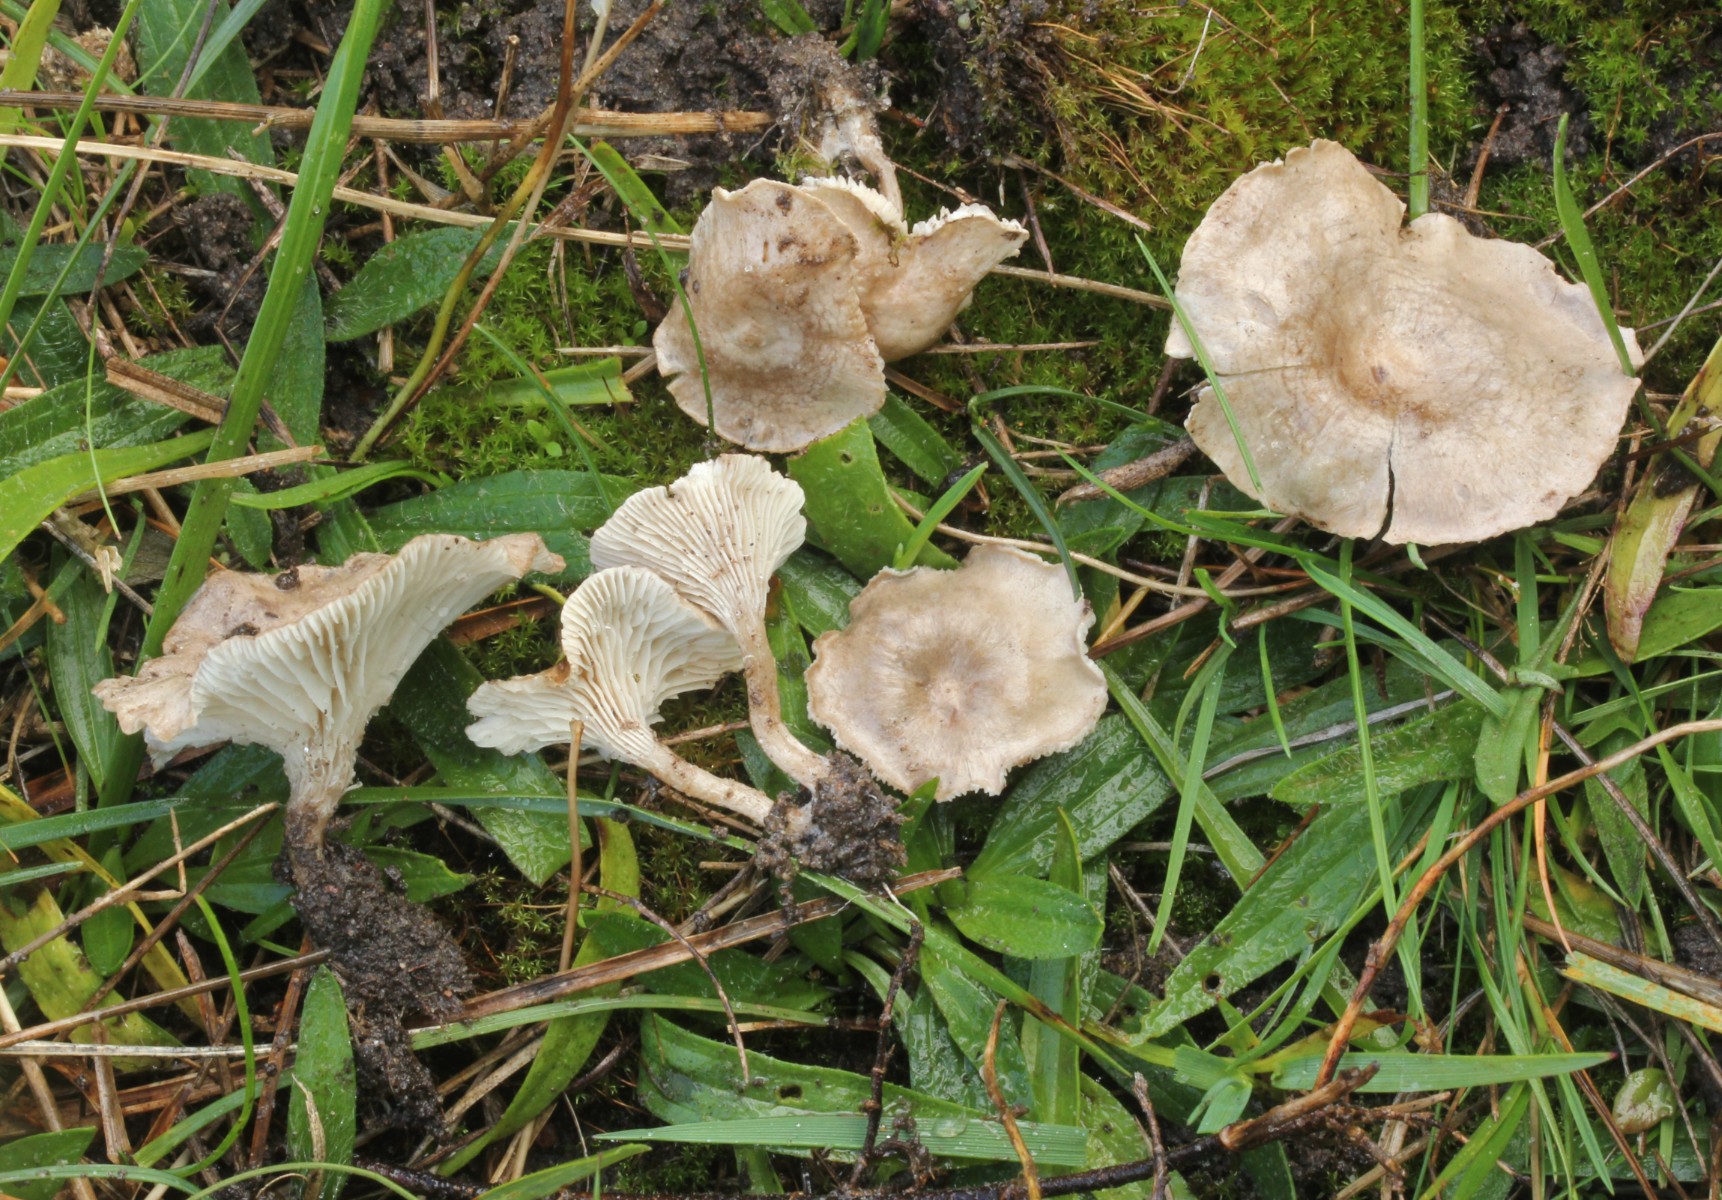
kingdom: Fungi
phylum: Basidiomycota
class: Agaricomycetes
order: Agaricales
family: Hygrophoraceae
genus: Spodocybe
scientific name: Spodocybe collina
